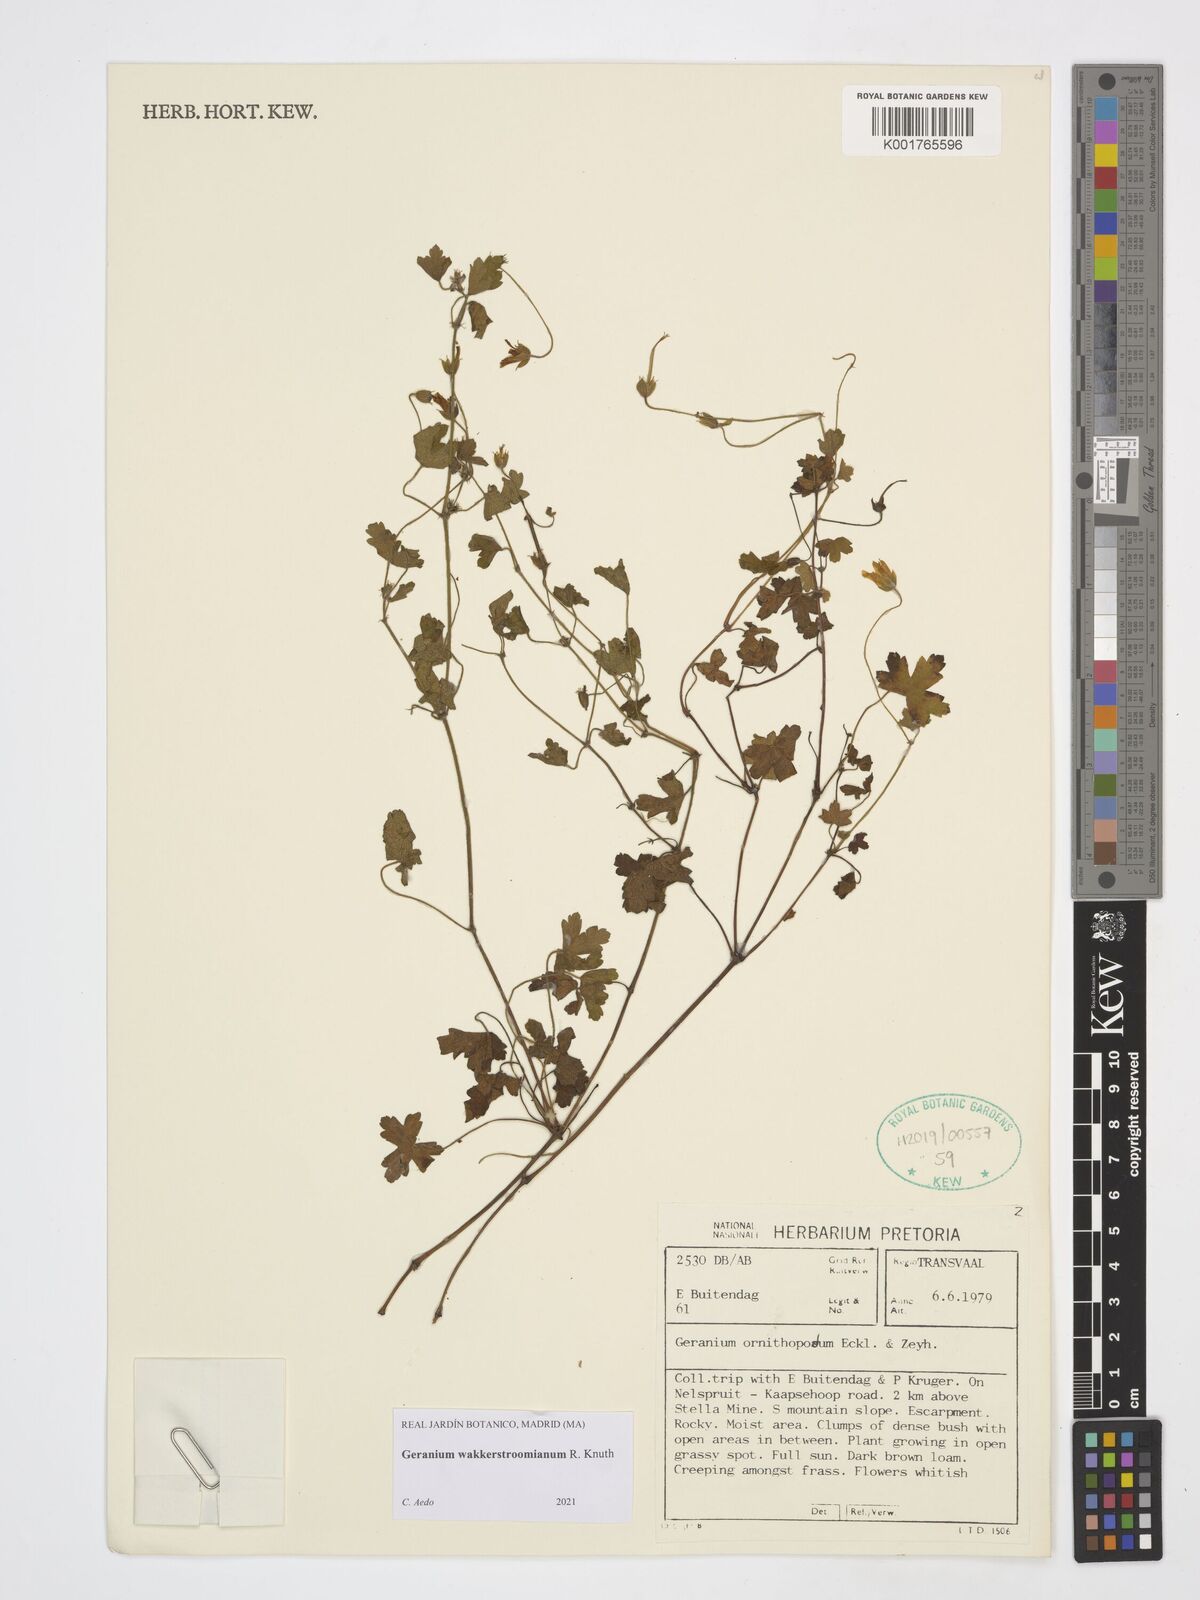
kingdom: Plantae
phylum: Tracheophyta
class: Magnoliopsida
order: Geraniales
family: Geraniaceae
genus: Geranium
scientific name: Geranium wakkerstroomianum
